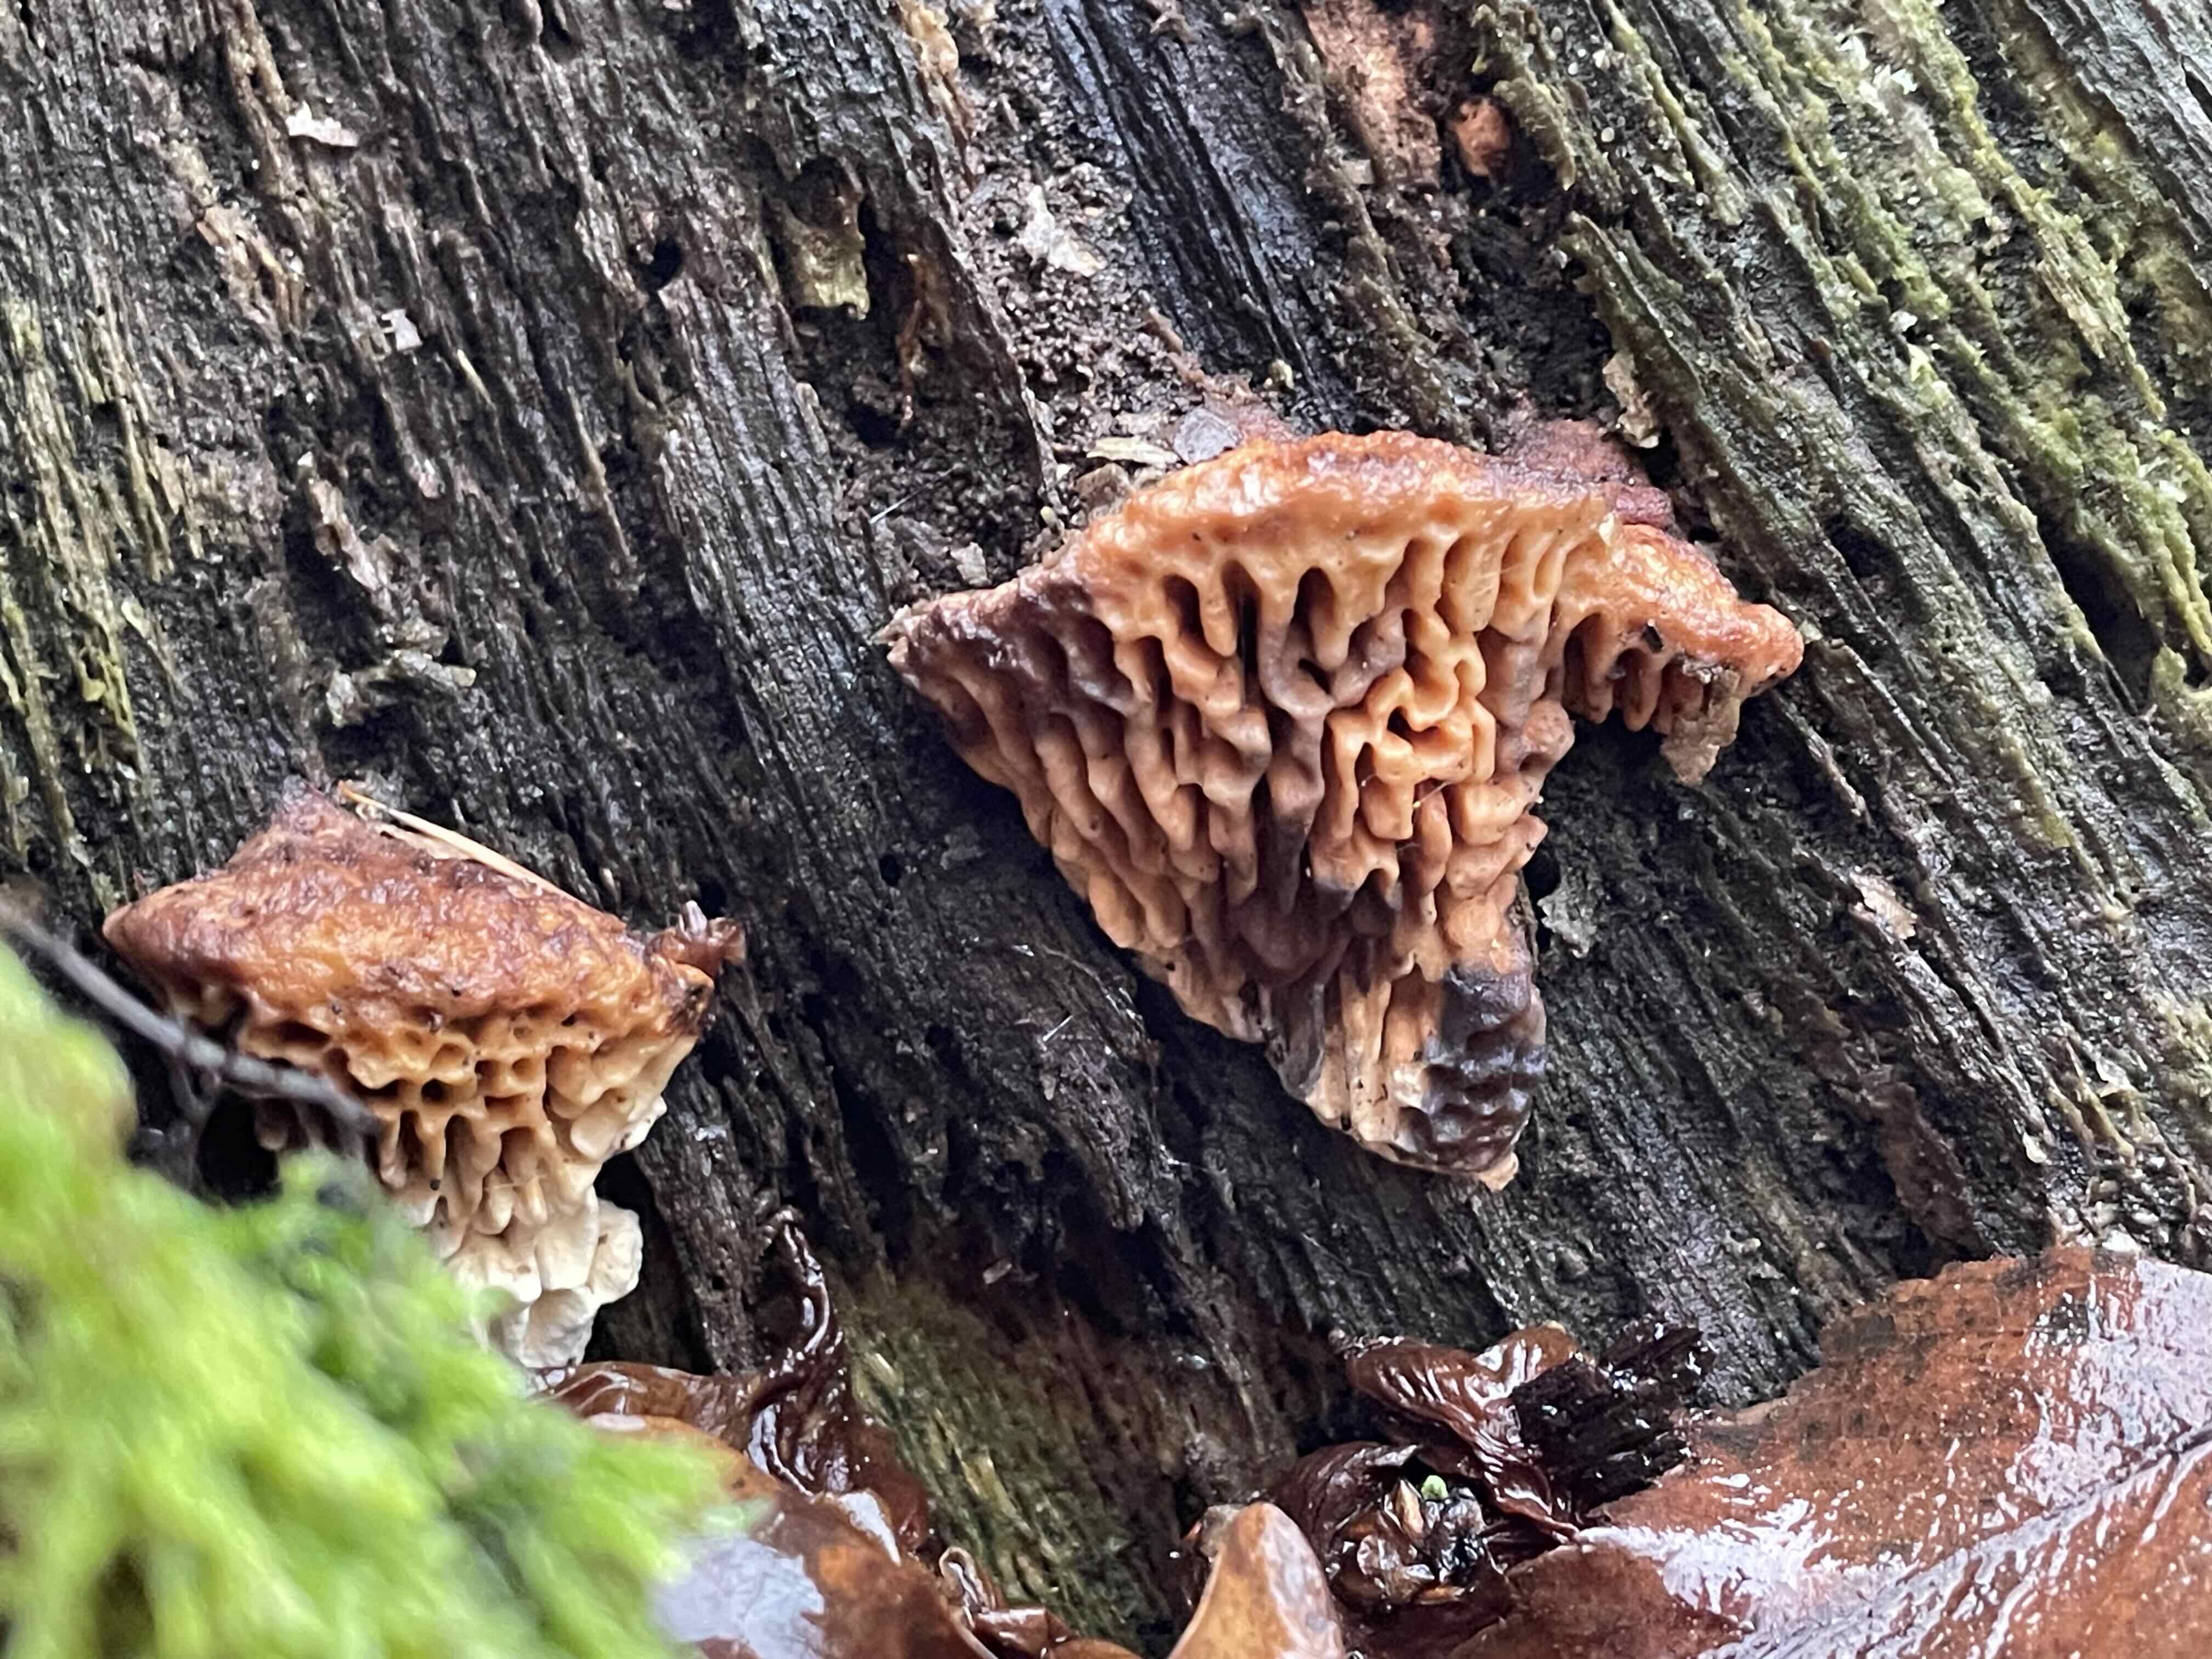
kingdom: Fungi
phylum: Basidiomycota
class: Agaricomycetes
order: Polyporales
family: Fomitopsidaceae
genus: Daedalea
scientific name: Daedalea quercina
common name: ege-labyrintsvamp
